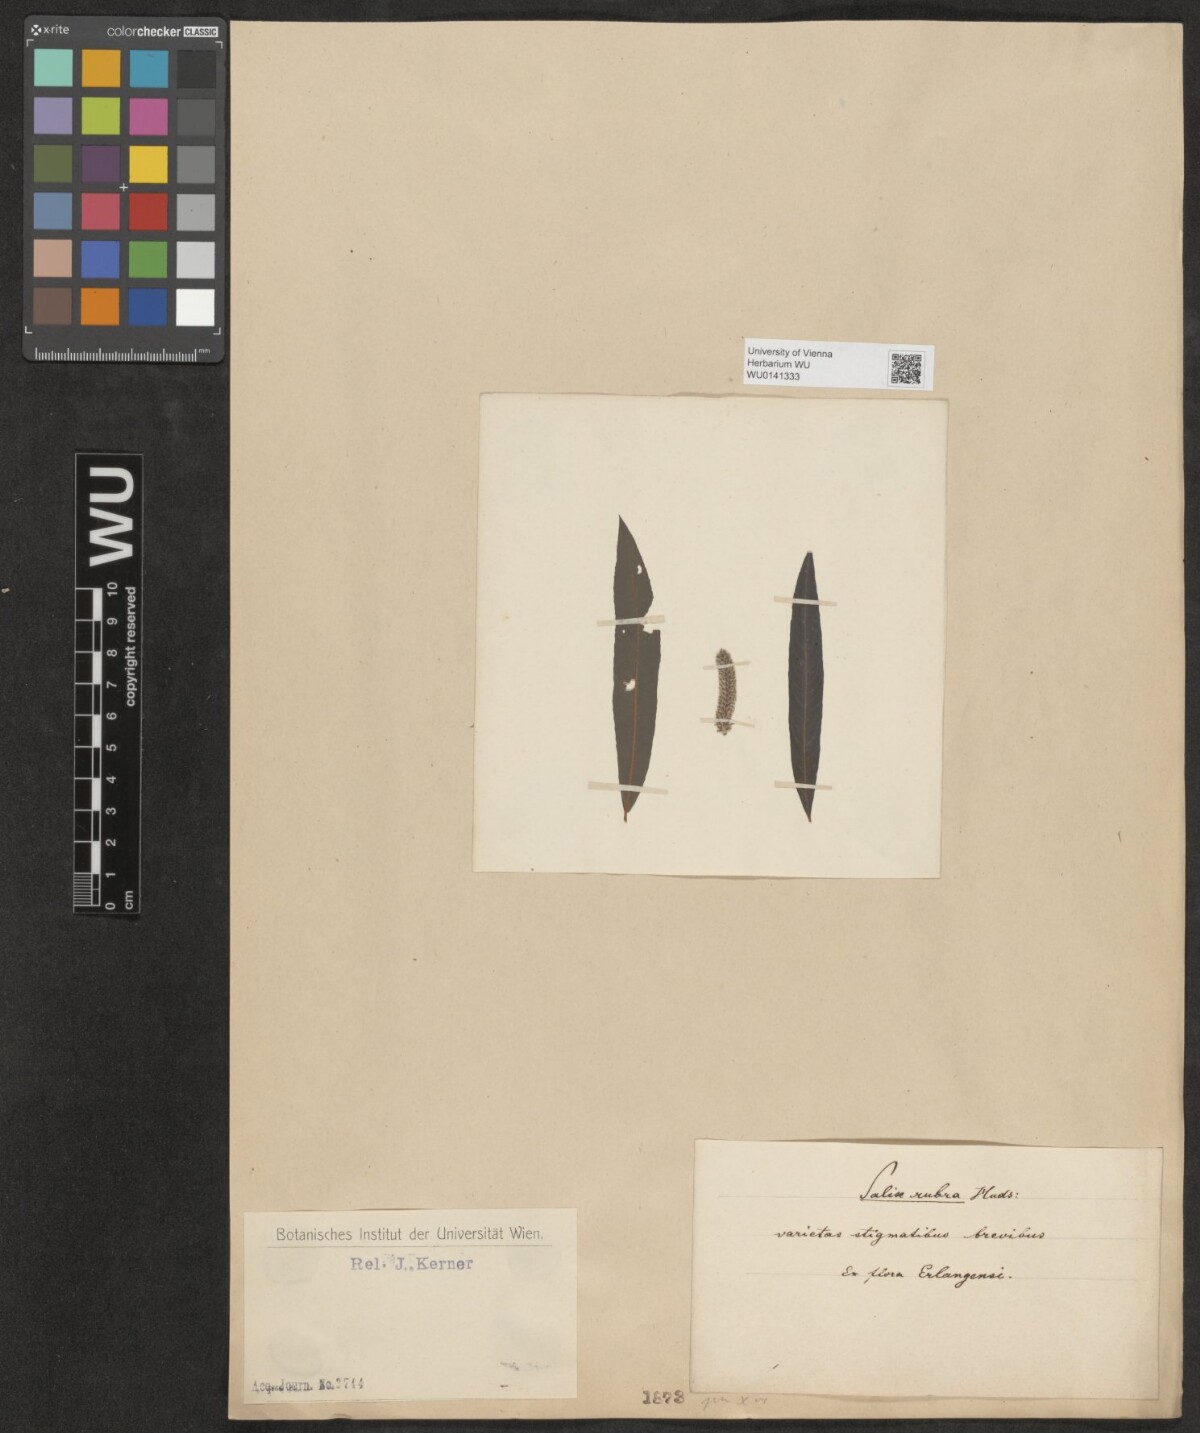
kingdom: Plantae
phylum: Tracheophyta
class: Magnoliopsida
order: Malpighiales
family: Salicaceae
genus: Salix
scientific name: Salix
